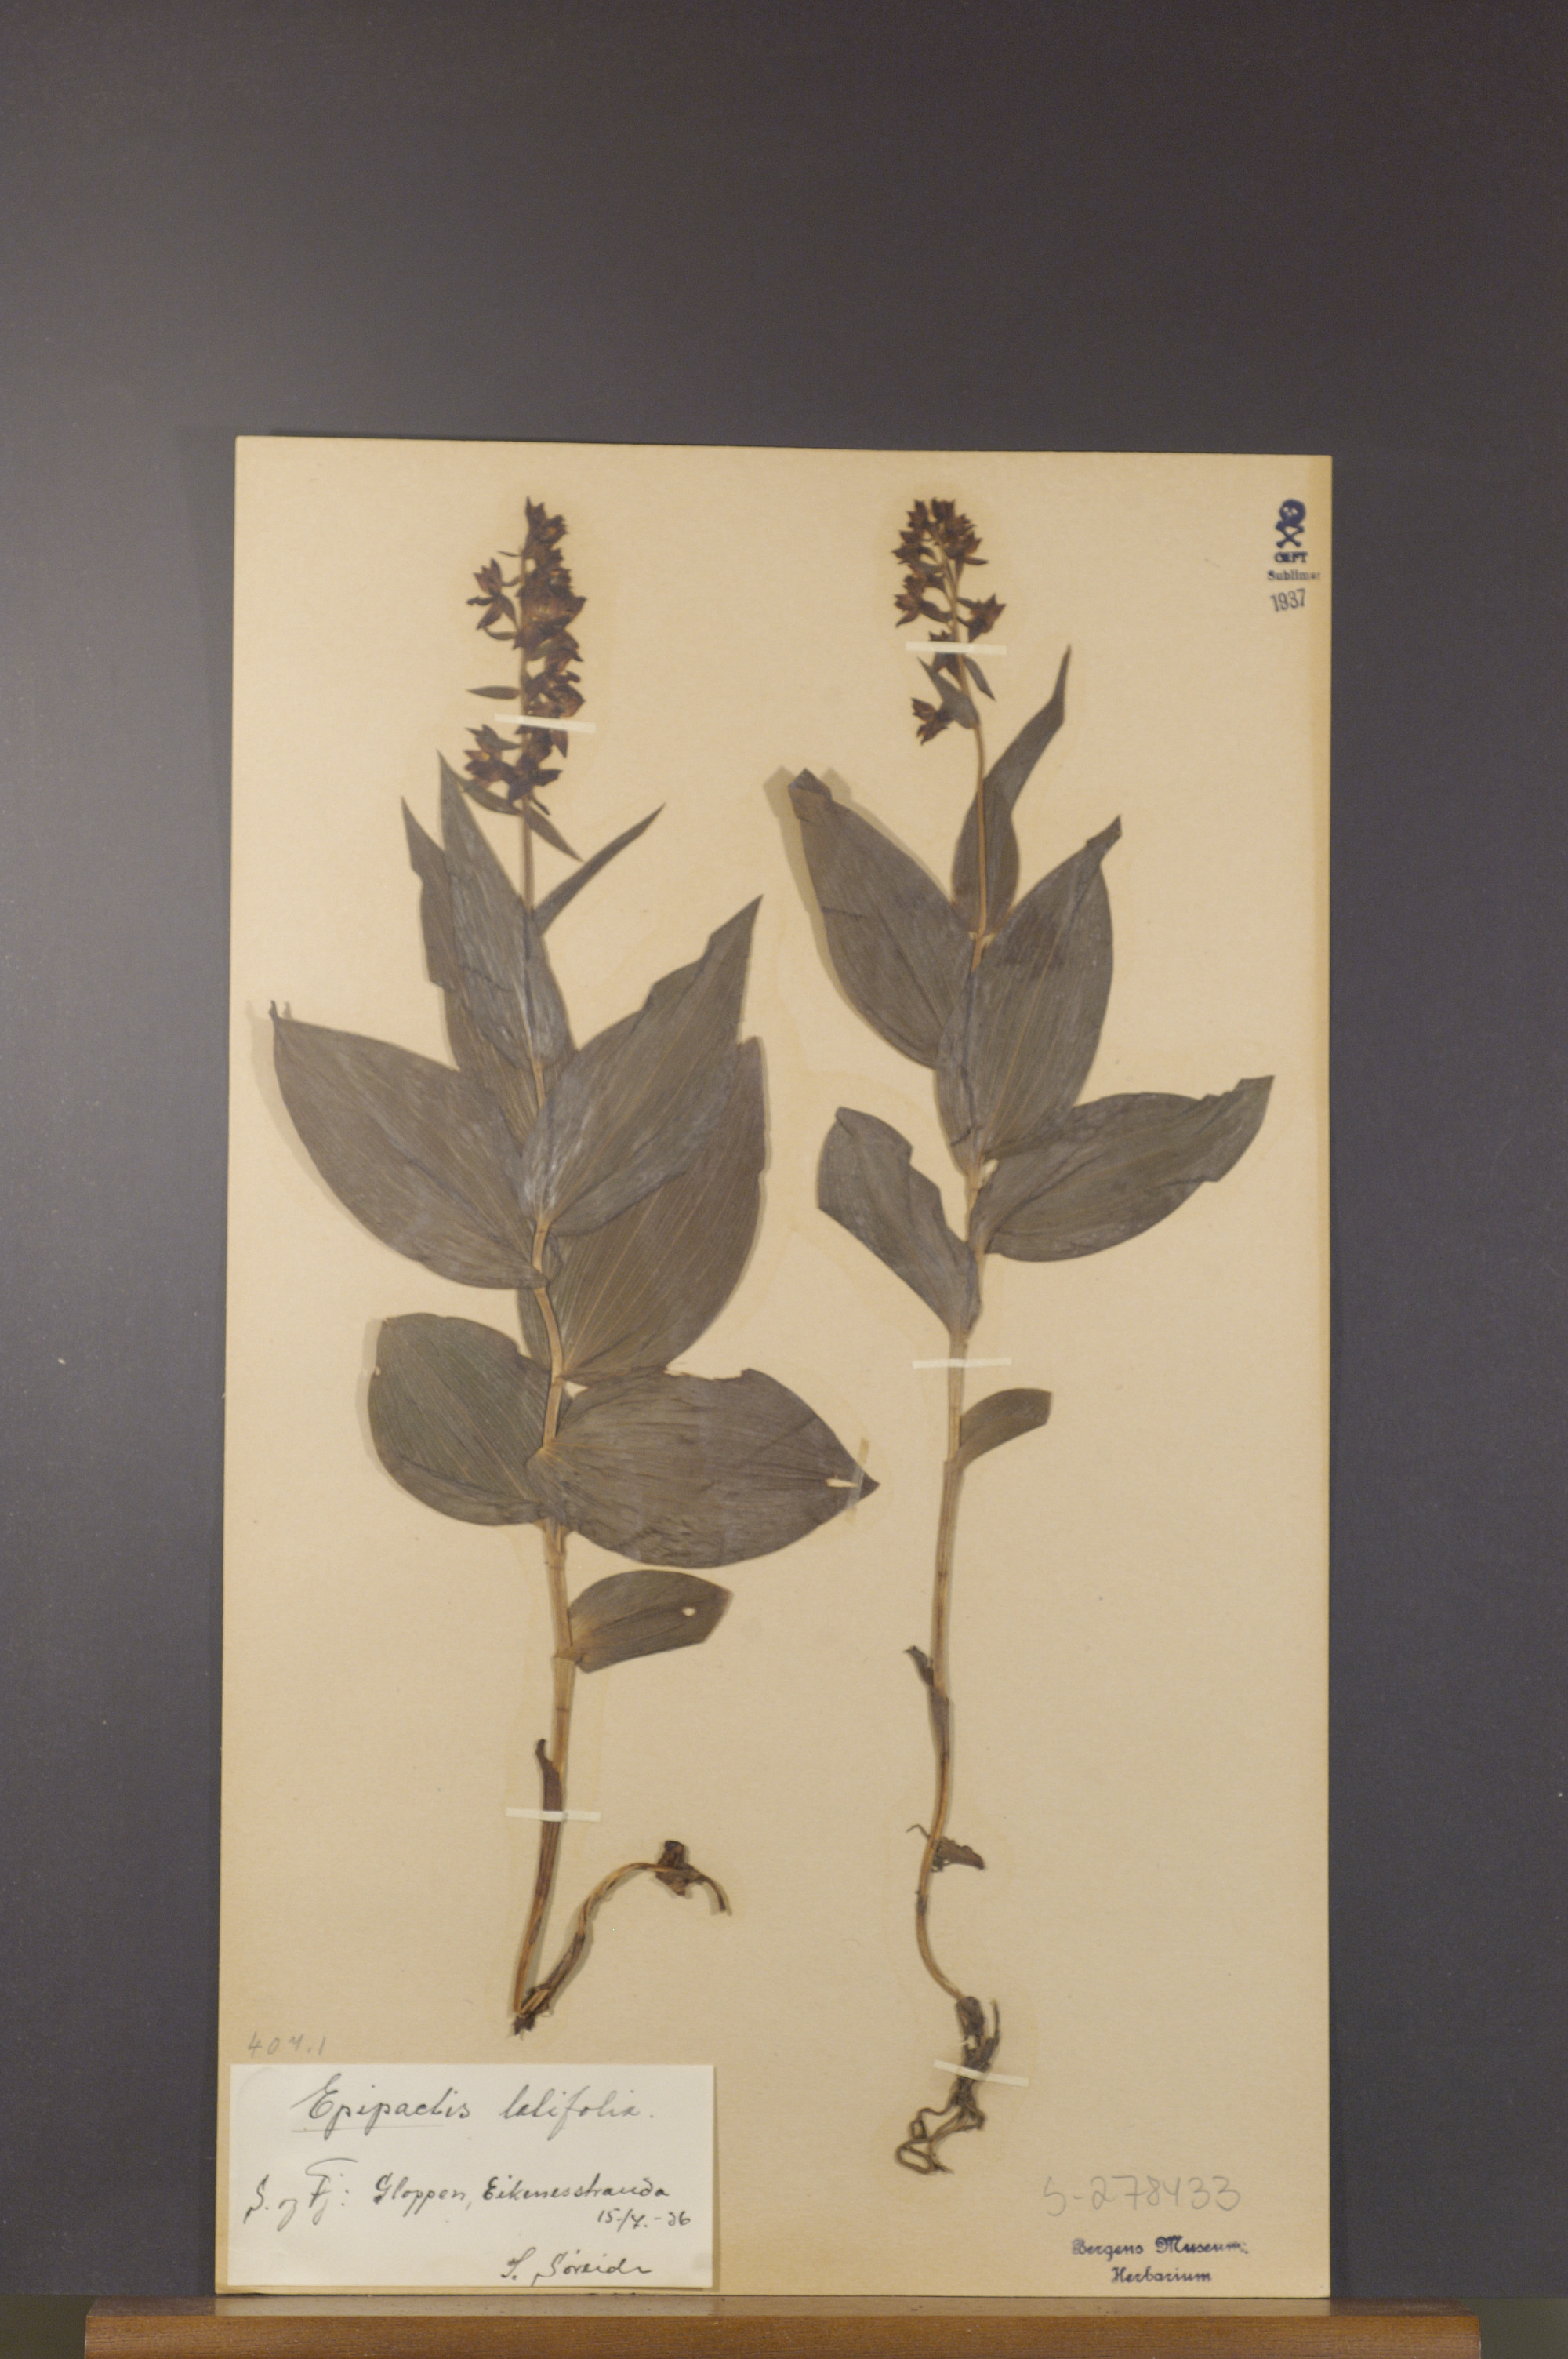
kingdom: Plantae
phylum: Tracheophyta
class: Liliopsida
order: Asparagales
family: Orchidaceae
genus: Epipactis
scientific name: Epipactis helleborine
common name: Broad-leaved helleborine
